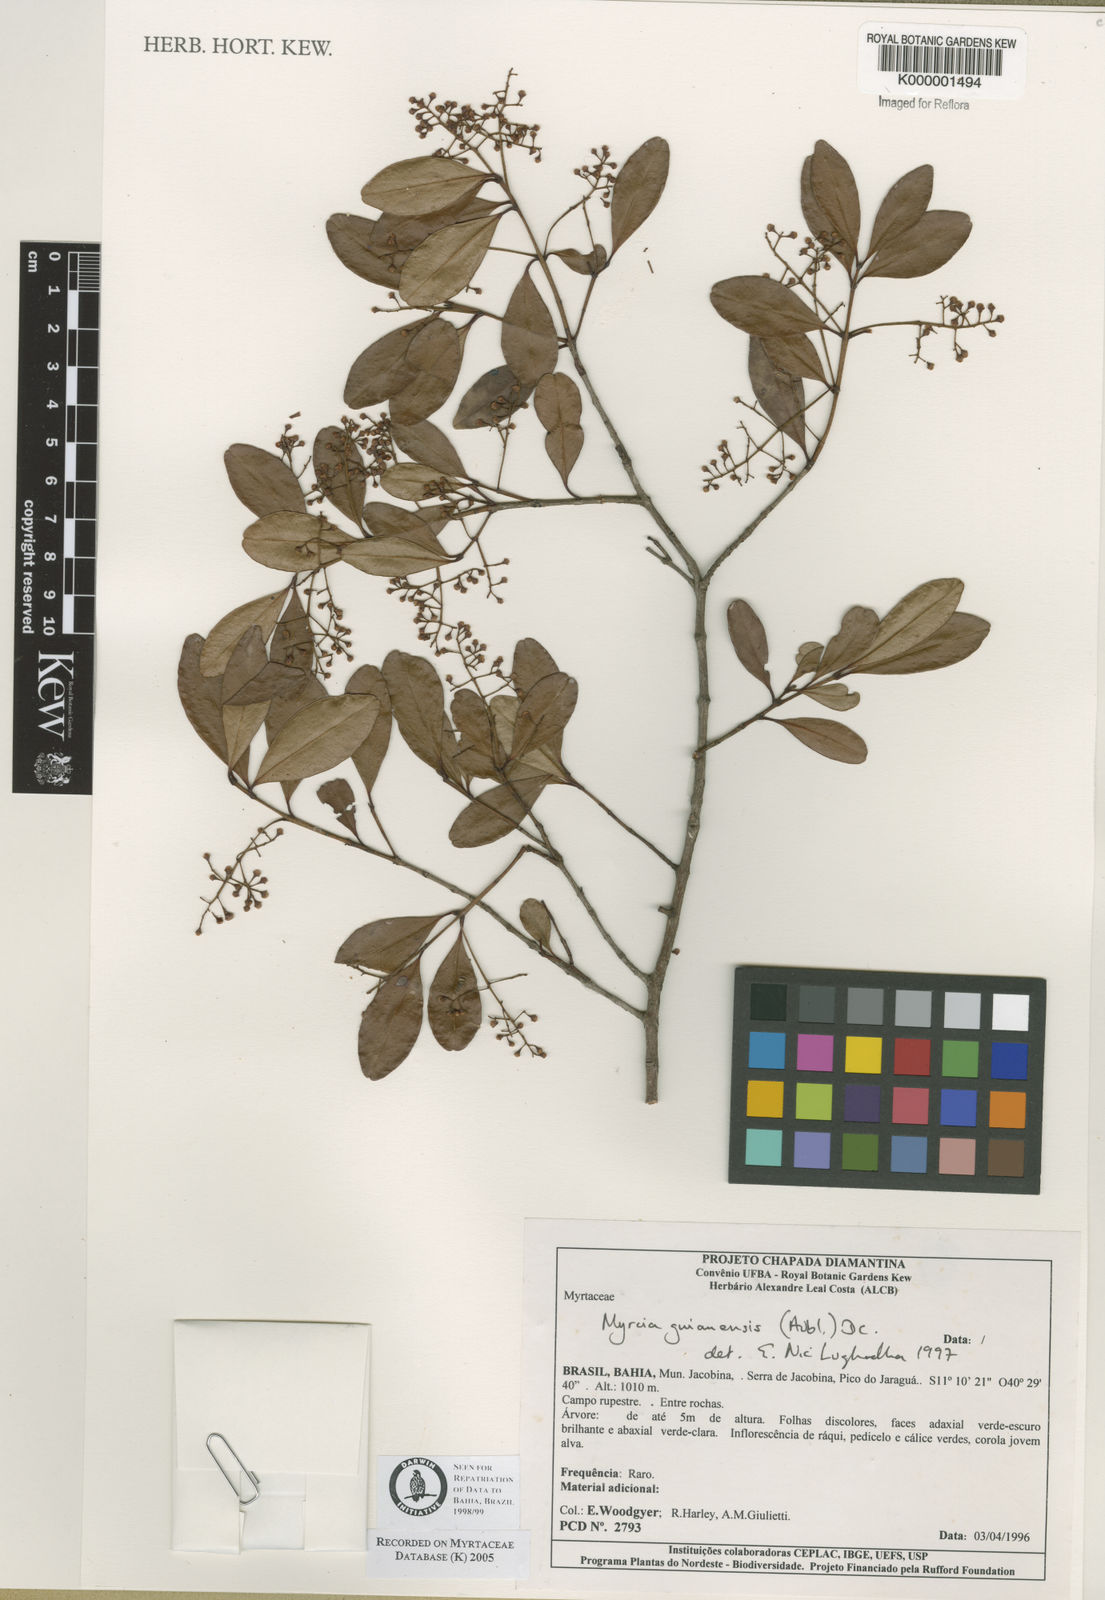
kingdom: Plantae
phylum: Tracheophyta
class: Magnoliopsida
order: Myrtales
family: Myrtaceae
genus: Myrcia
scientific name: Myrcia guianensis
